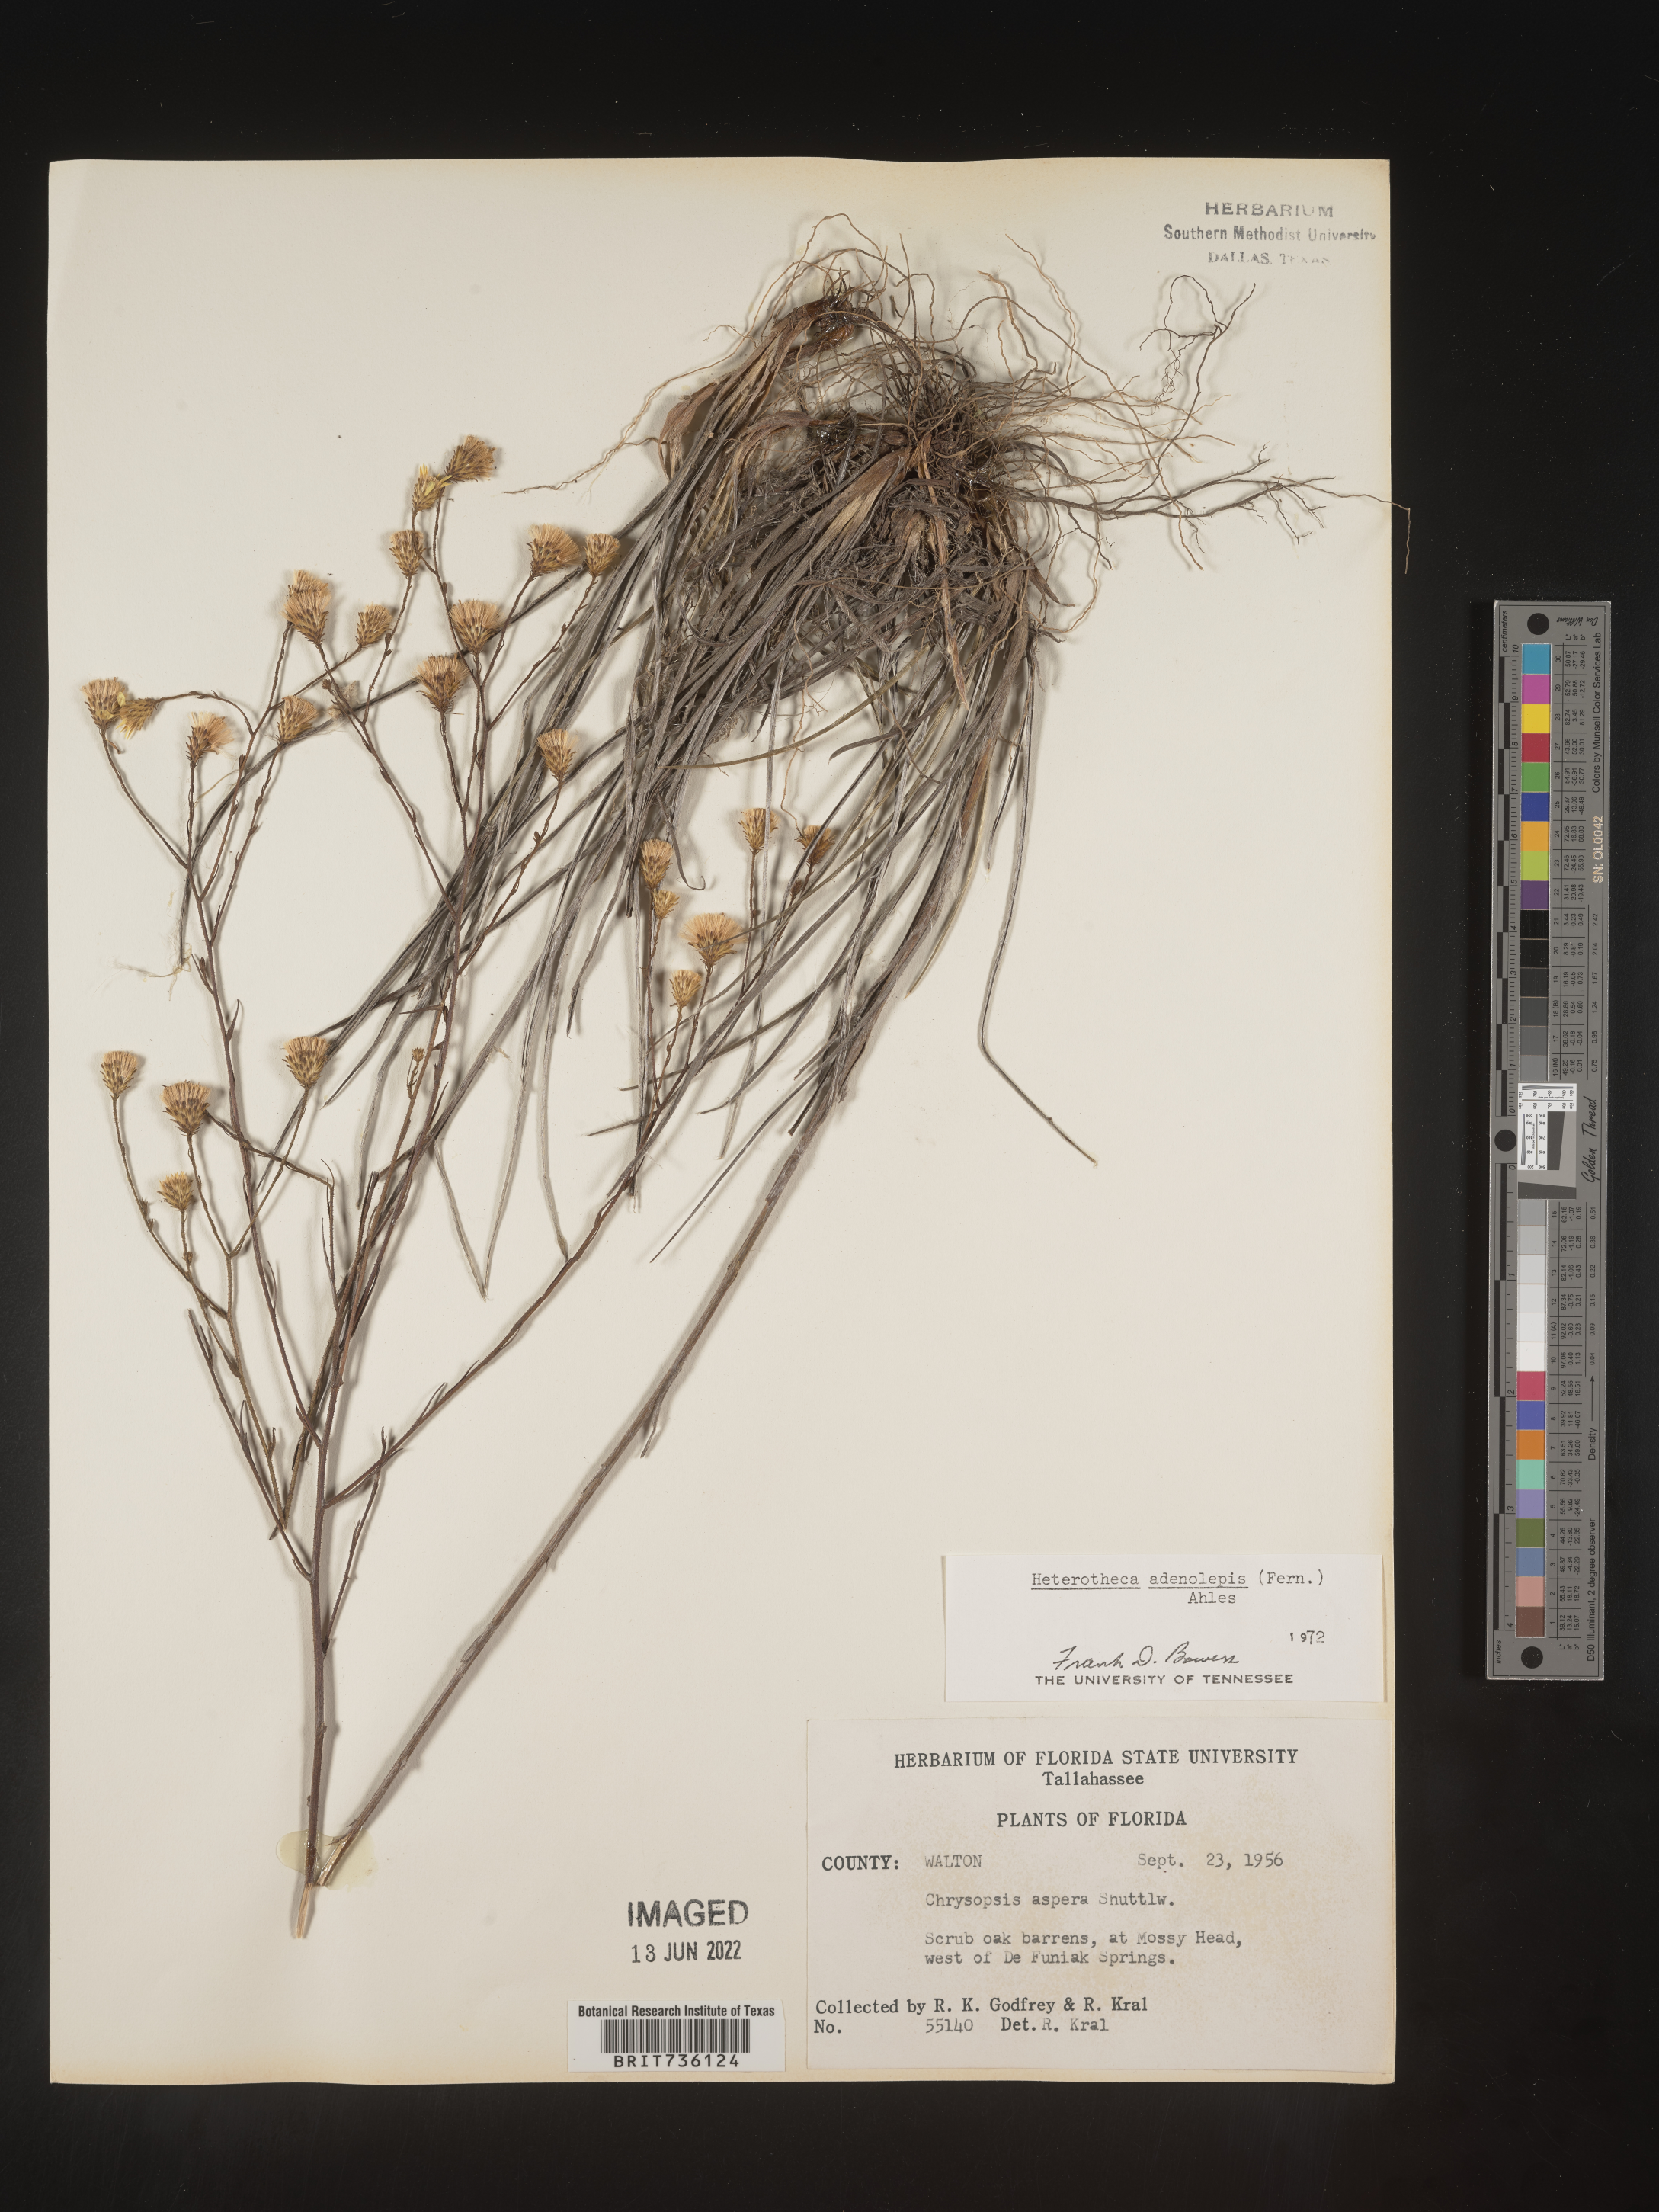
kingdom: Plantae
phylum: Tracheophyta
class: Magnoliopsida
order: Asterales
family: Asteraceae
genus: Pityopsis
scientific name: Pityopsis aspera
